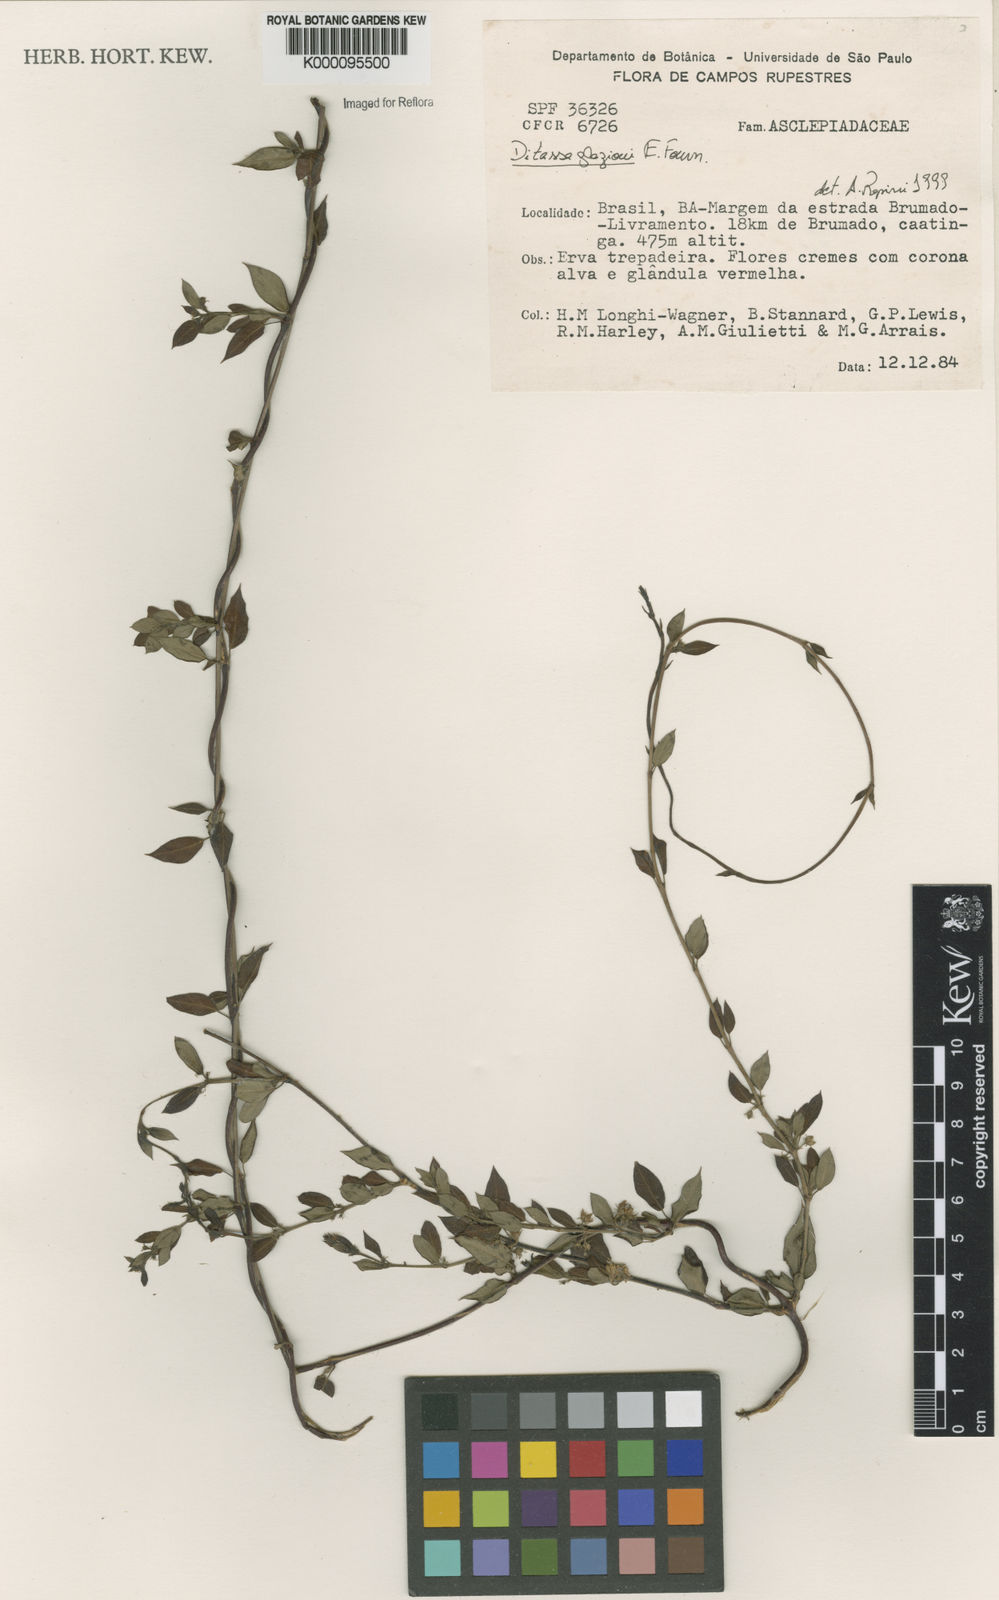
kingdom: Plantae
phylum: Tracheophyta
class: Magnoliopsida
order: Gentianales
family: Apocynaceae
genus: Ditassa
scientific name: Ditassa
